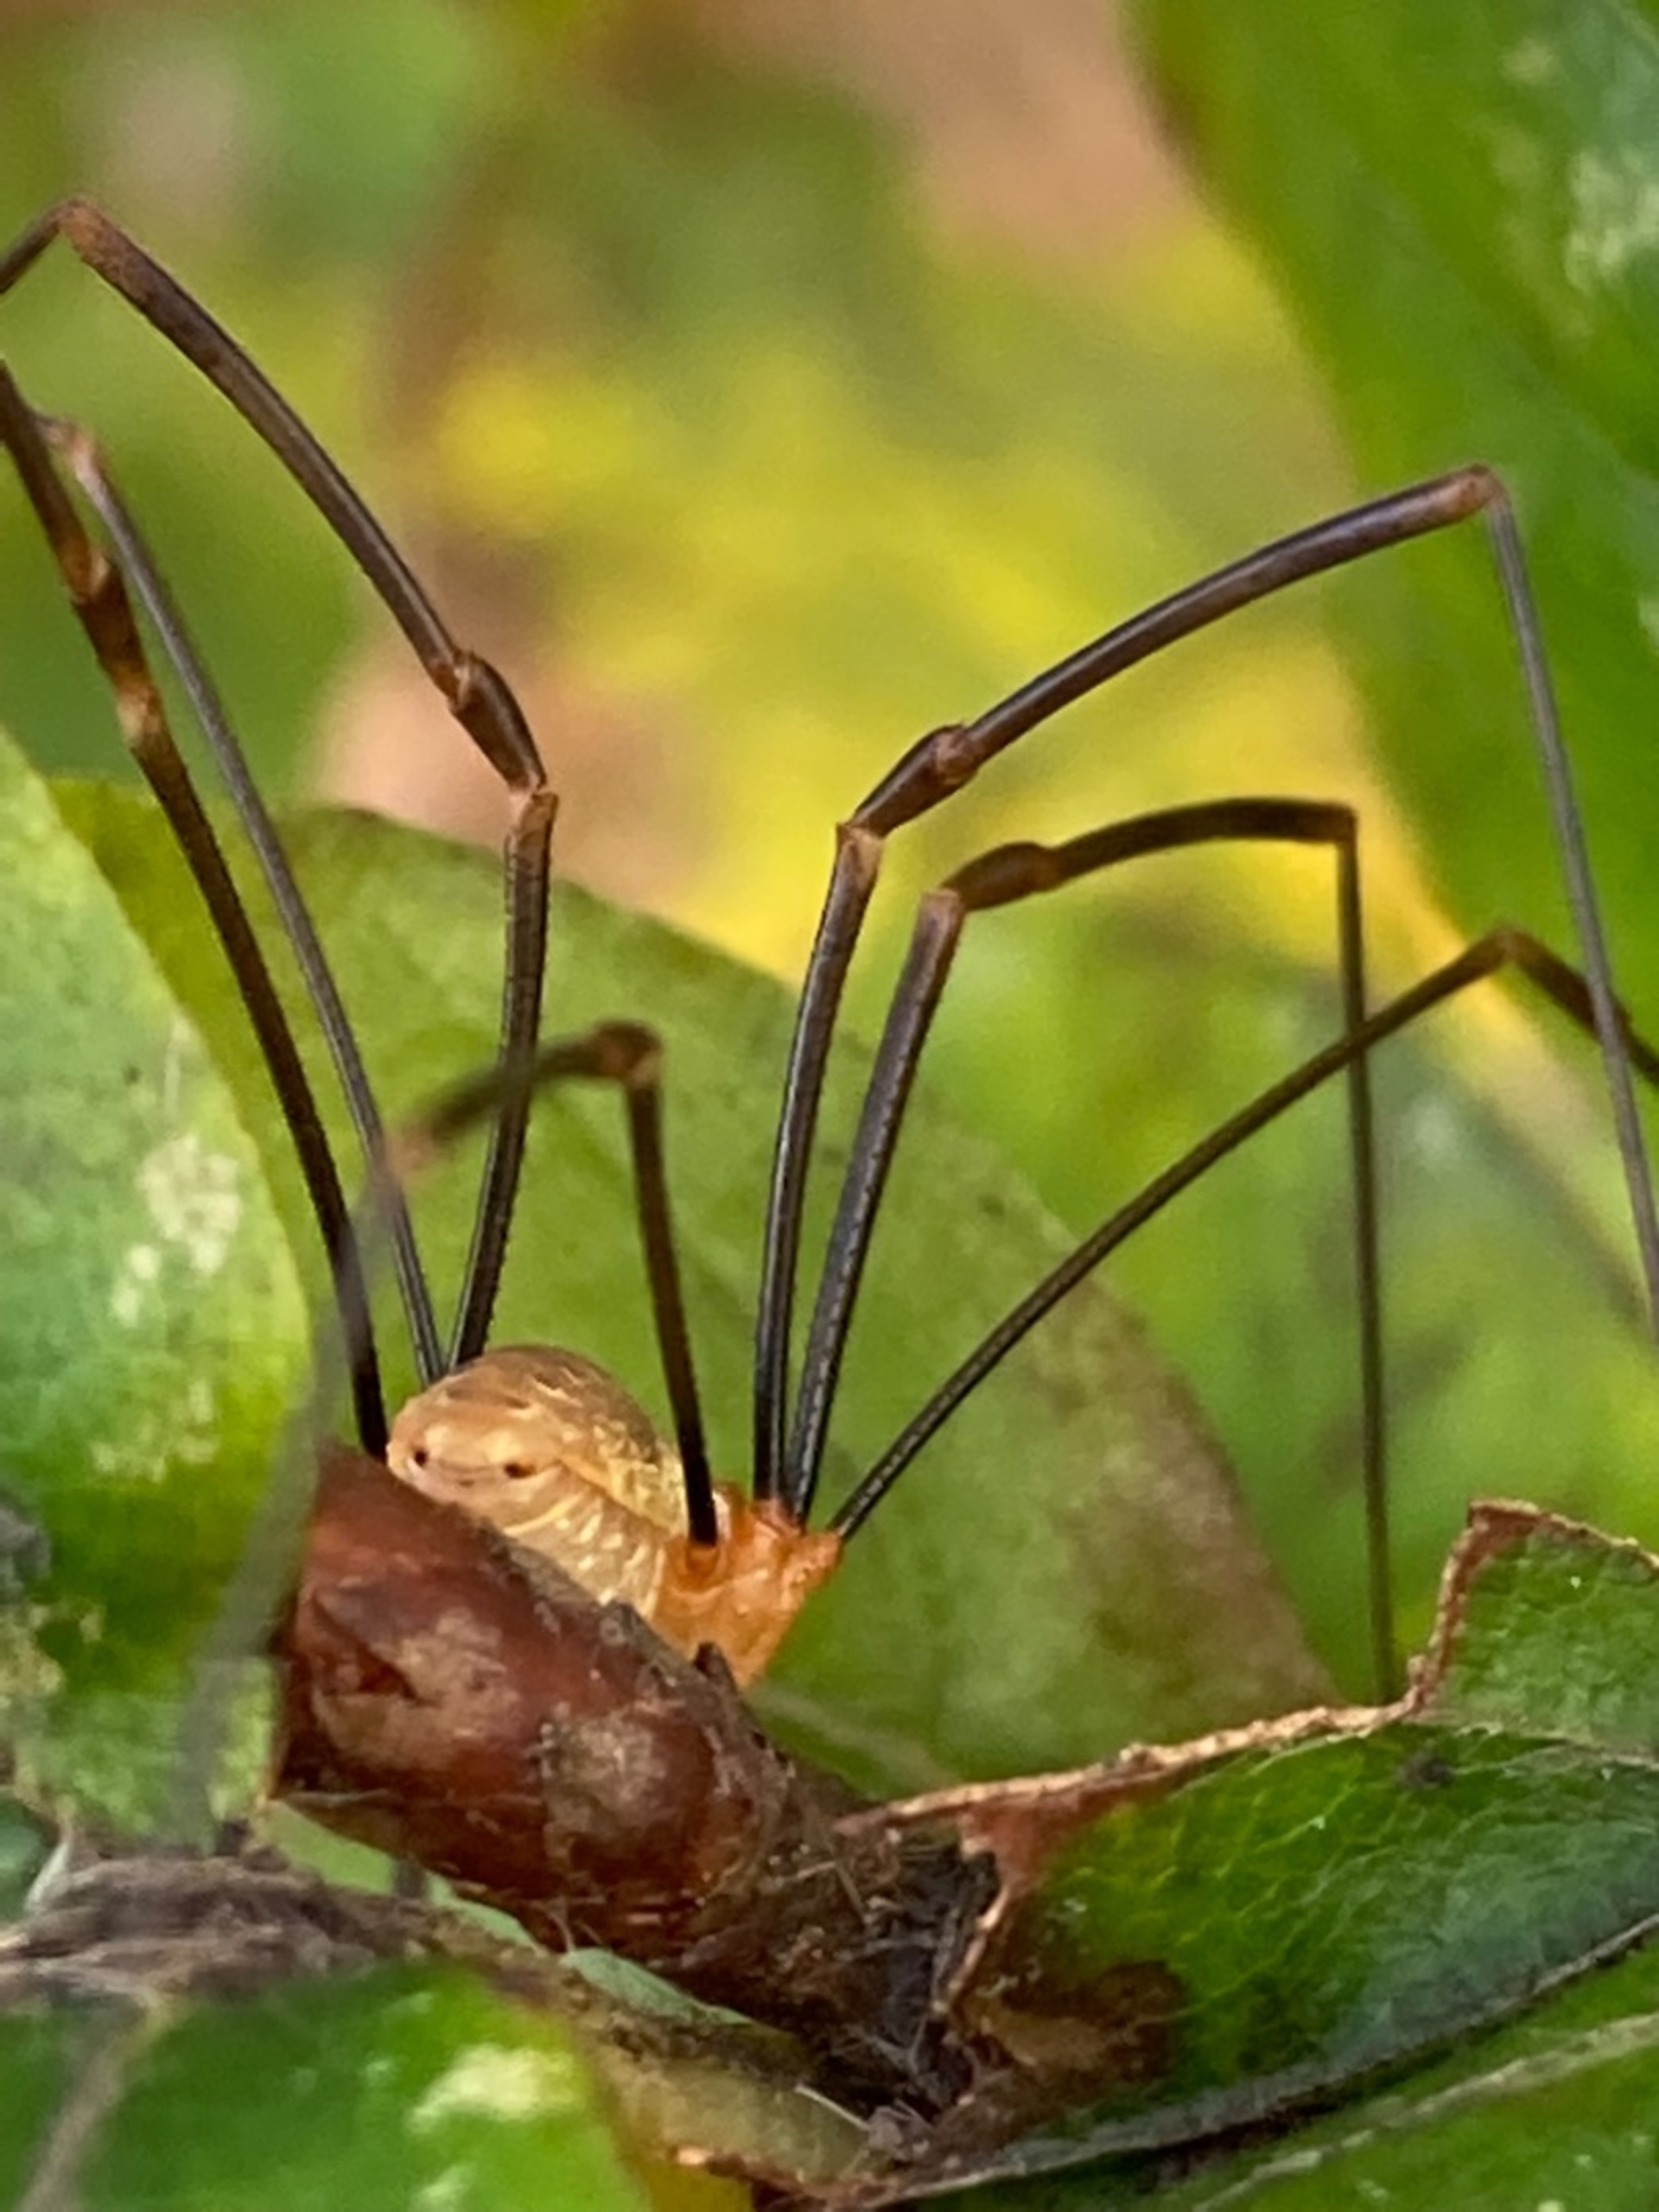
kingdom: Animalia
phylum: Arthropoda
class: Arachnida
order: Opiliones
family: Phalangiidae
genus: Opilio
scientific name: Opilio canestrinii
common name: Orange vægmejer
